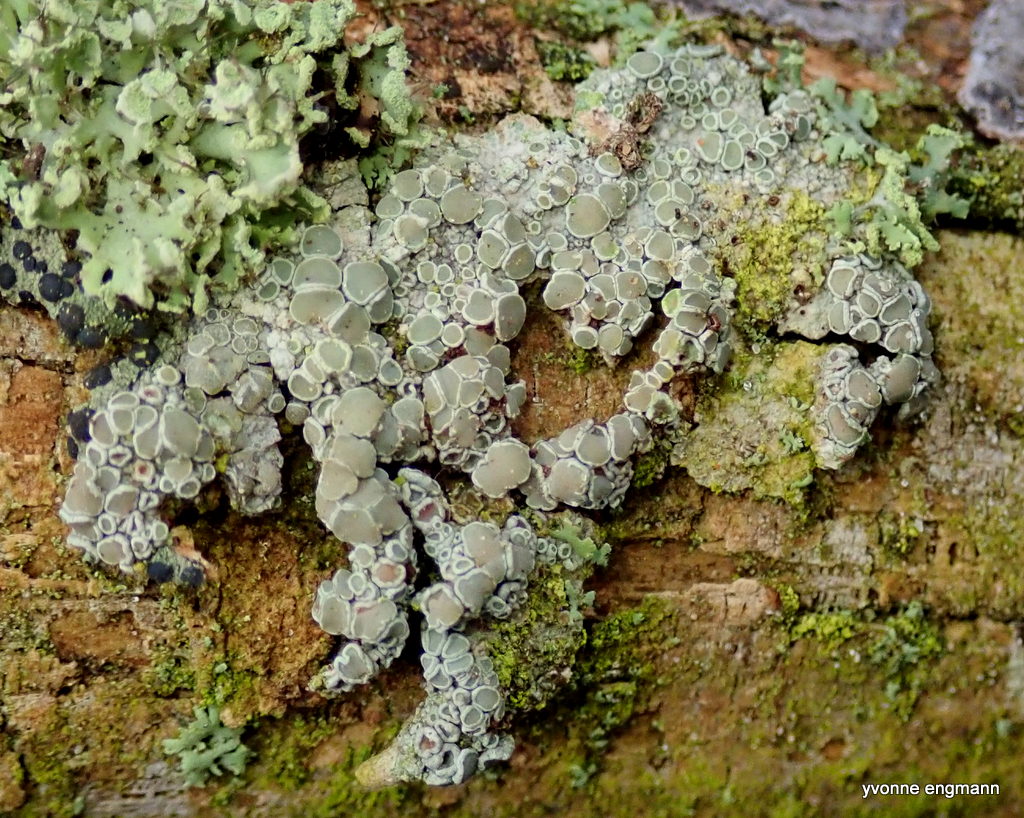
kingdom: Fungi
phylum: Ascomycota
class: Lecanoromycetes
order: Lecanorales
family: Lecanoraceae
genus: Lecanora
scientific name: Lecanora chlarotera
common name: brun kantskivelav
